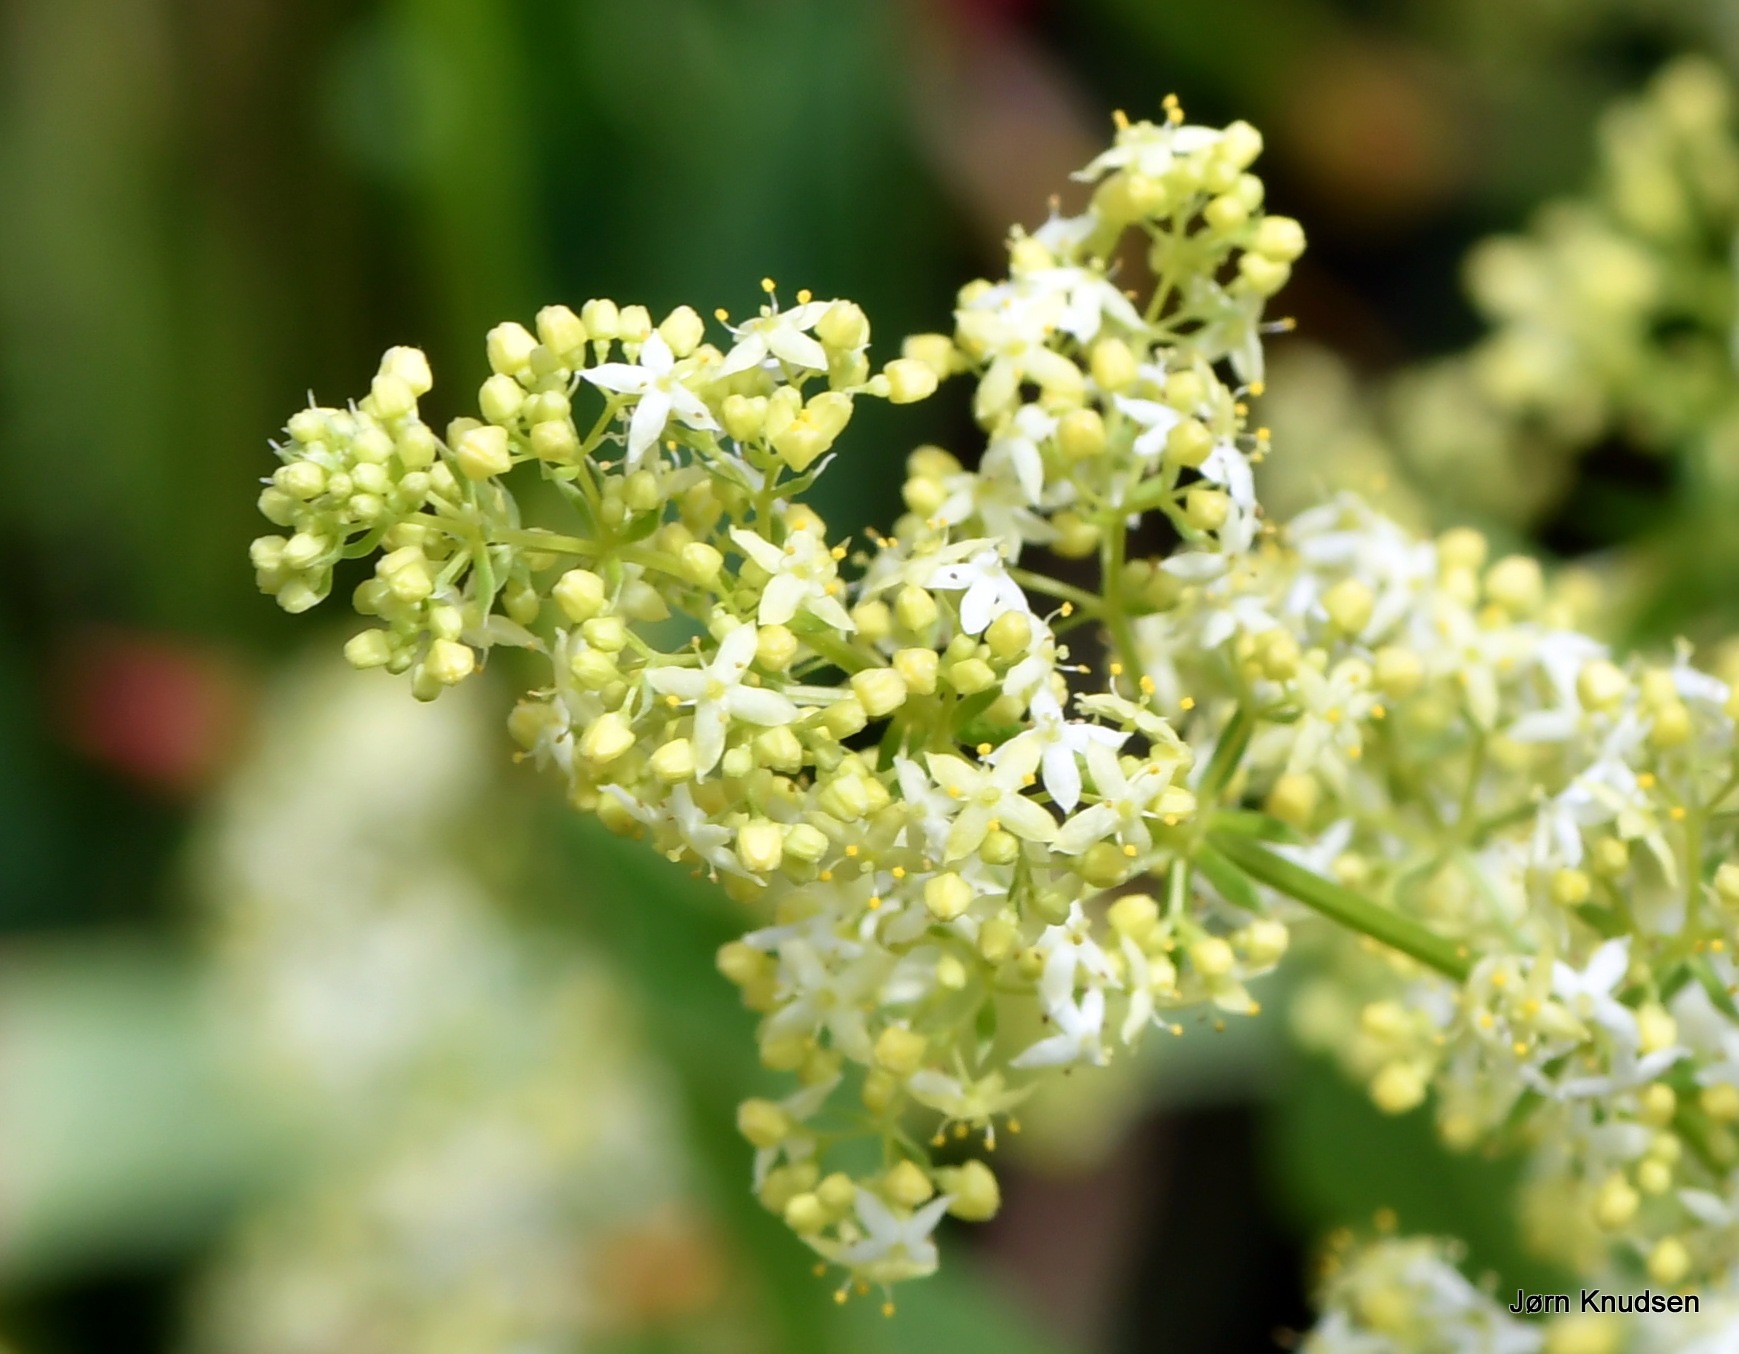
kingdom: Plantae
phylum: Tracheophyta
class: Magnoliopsida
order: Gentianales
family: Rubiaceae
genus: Galium
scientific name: Galium mollugo
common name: Hvid snerre
